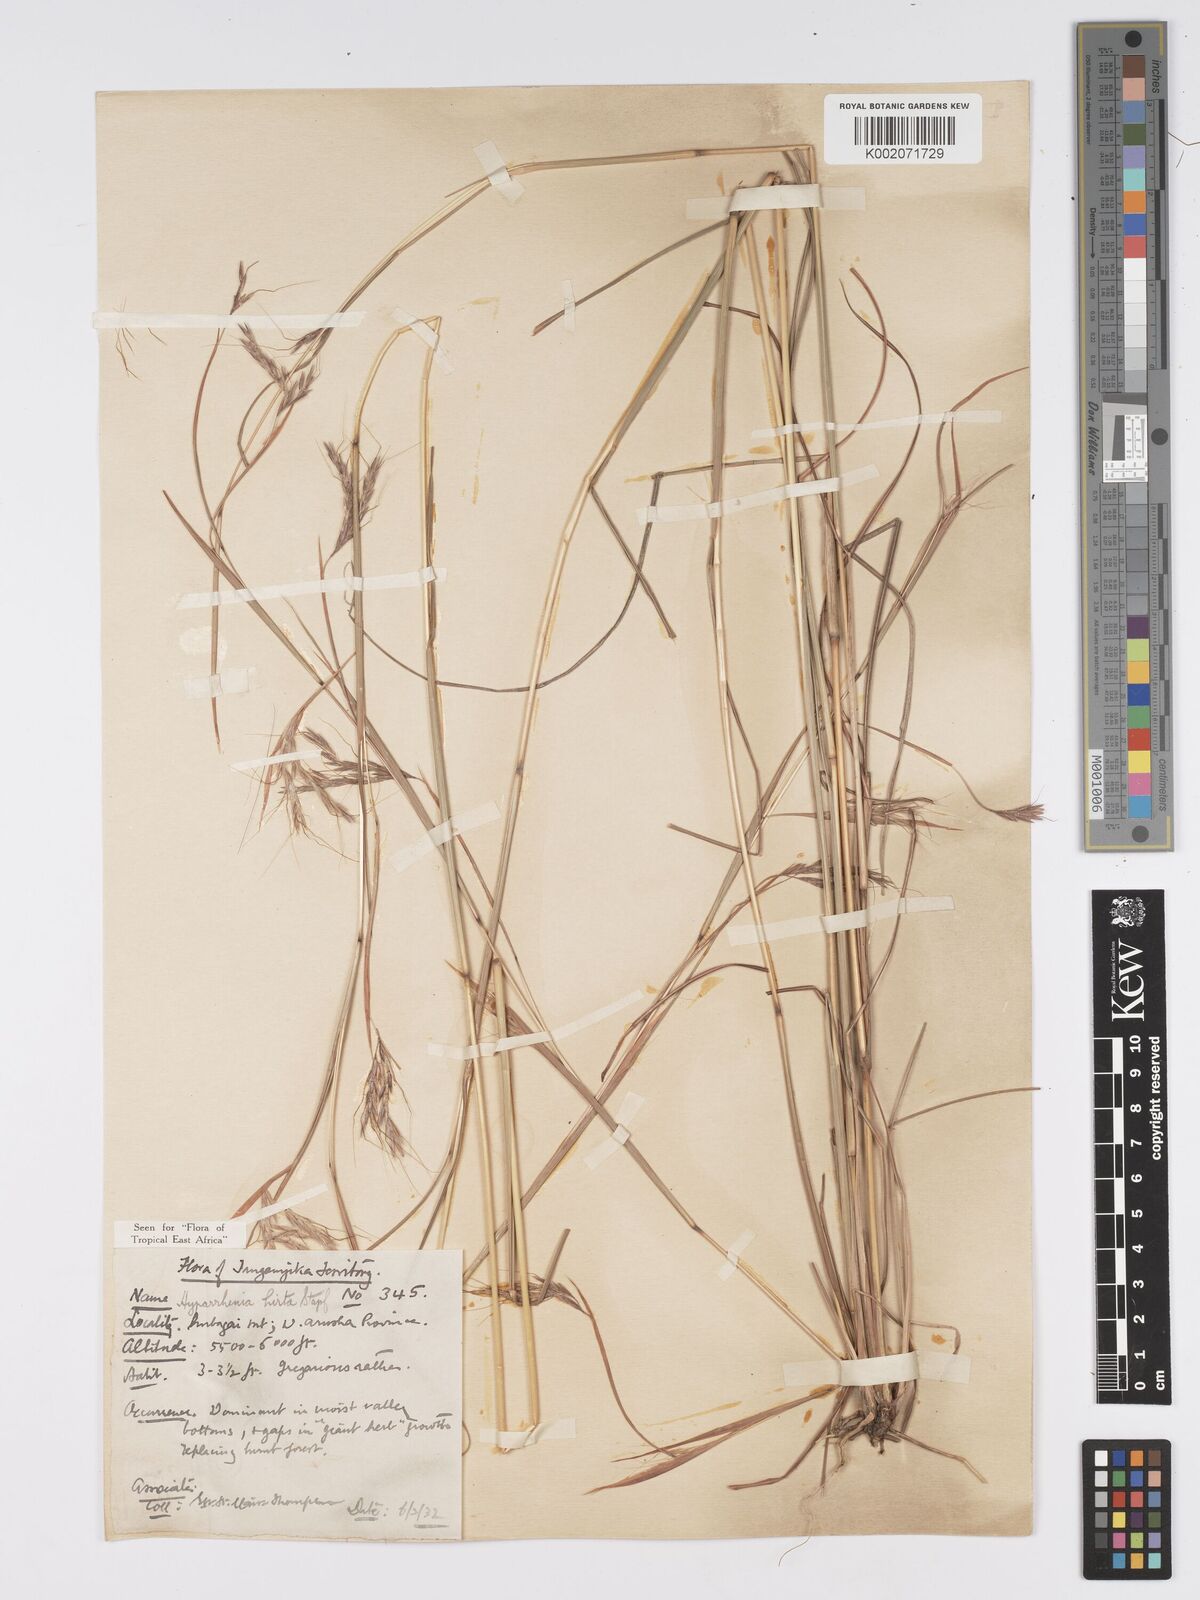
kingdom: Plantae
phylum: Tracheophyta
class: Liliopsida
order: Poales
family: Poaceae
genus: Hyparrhenia
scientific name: Hyparrhenia hirta
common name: Thatching grass
